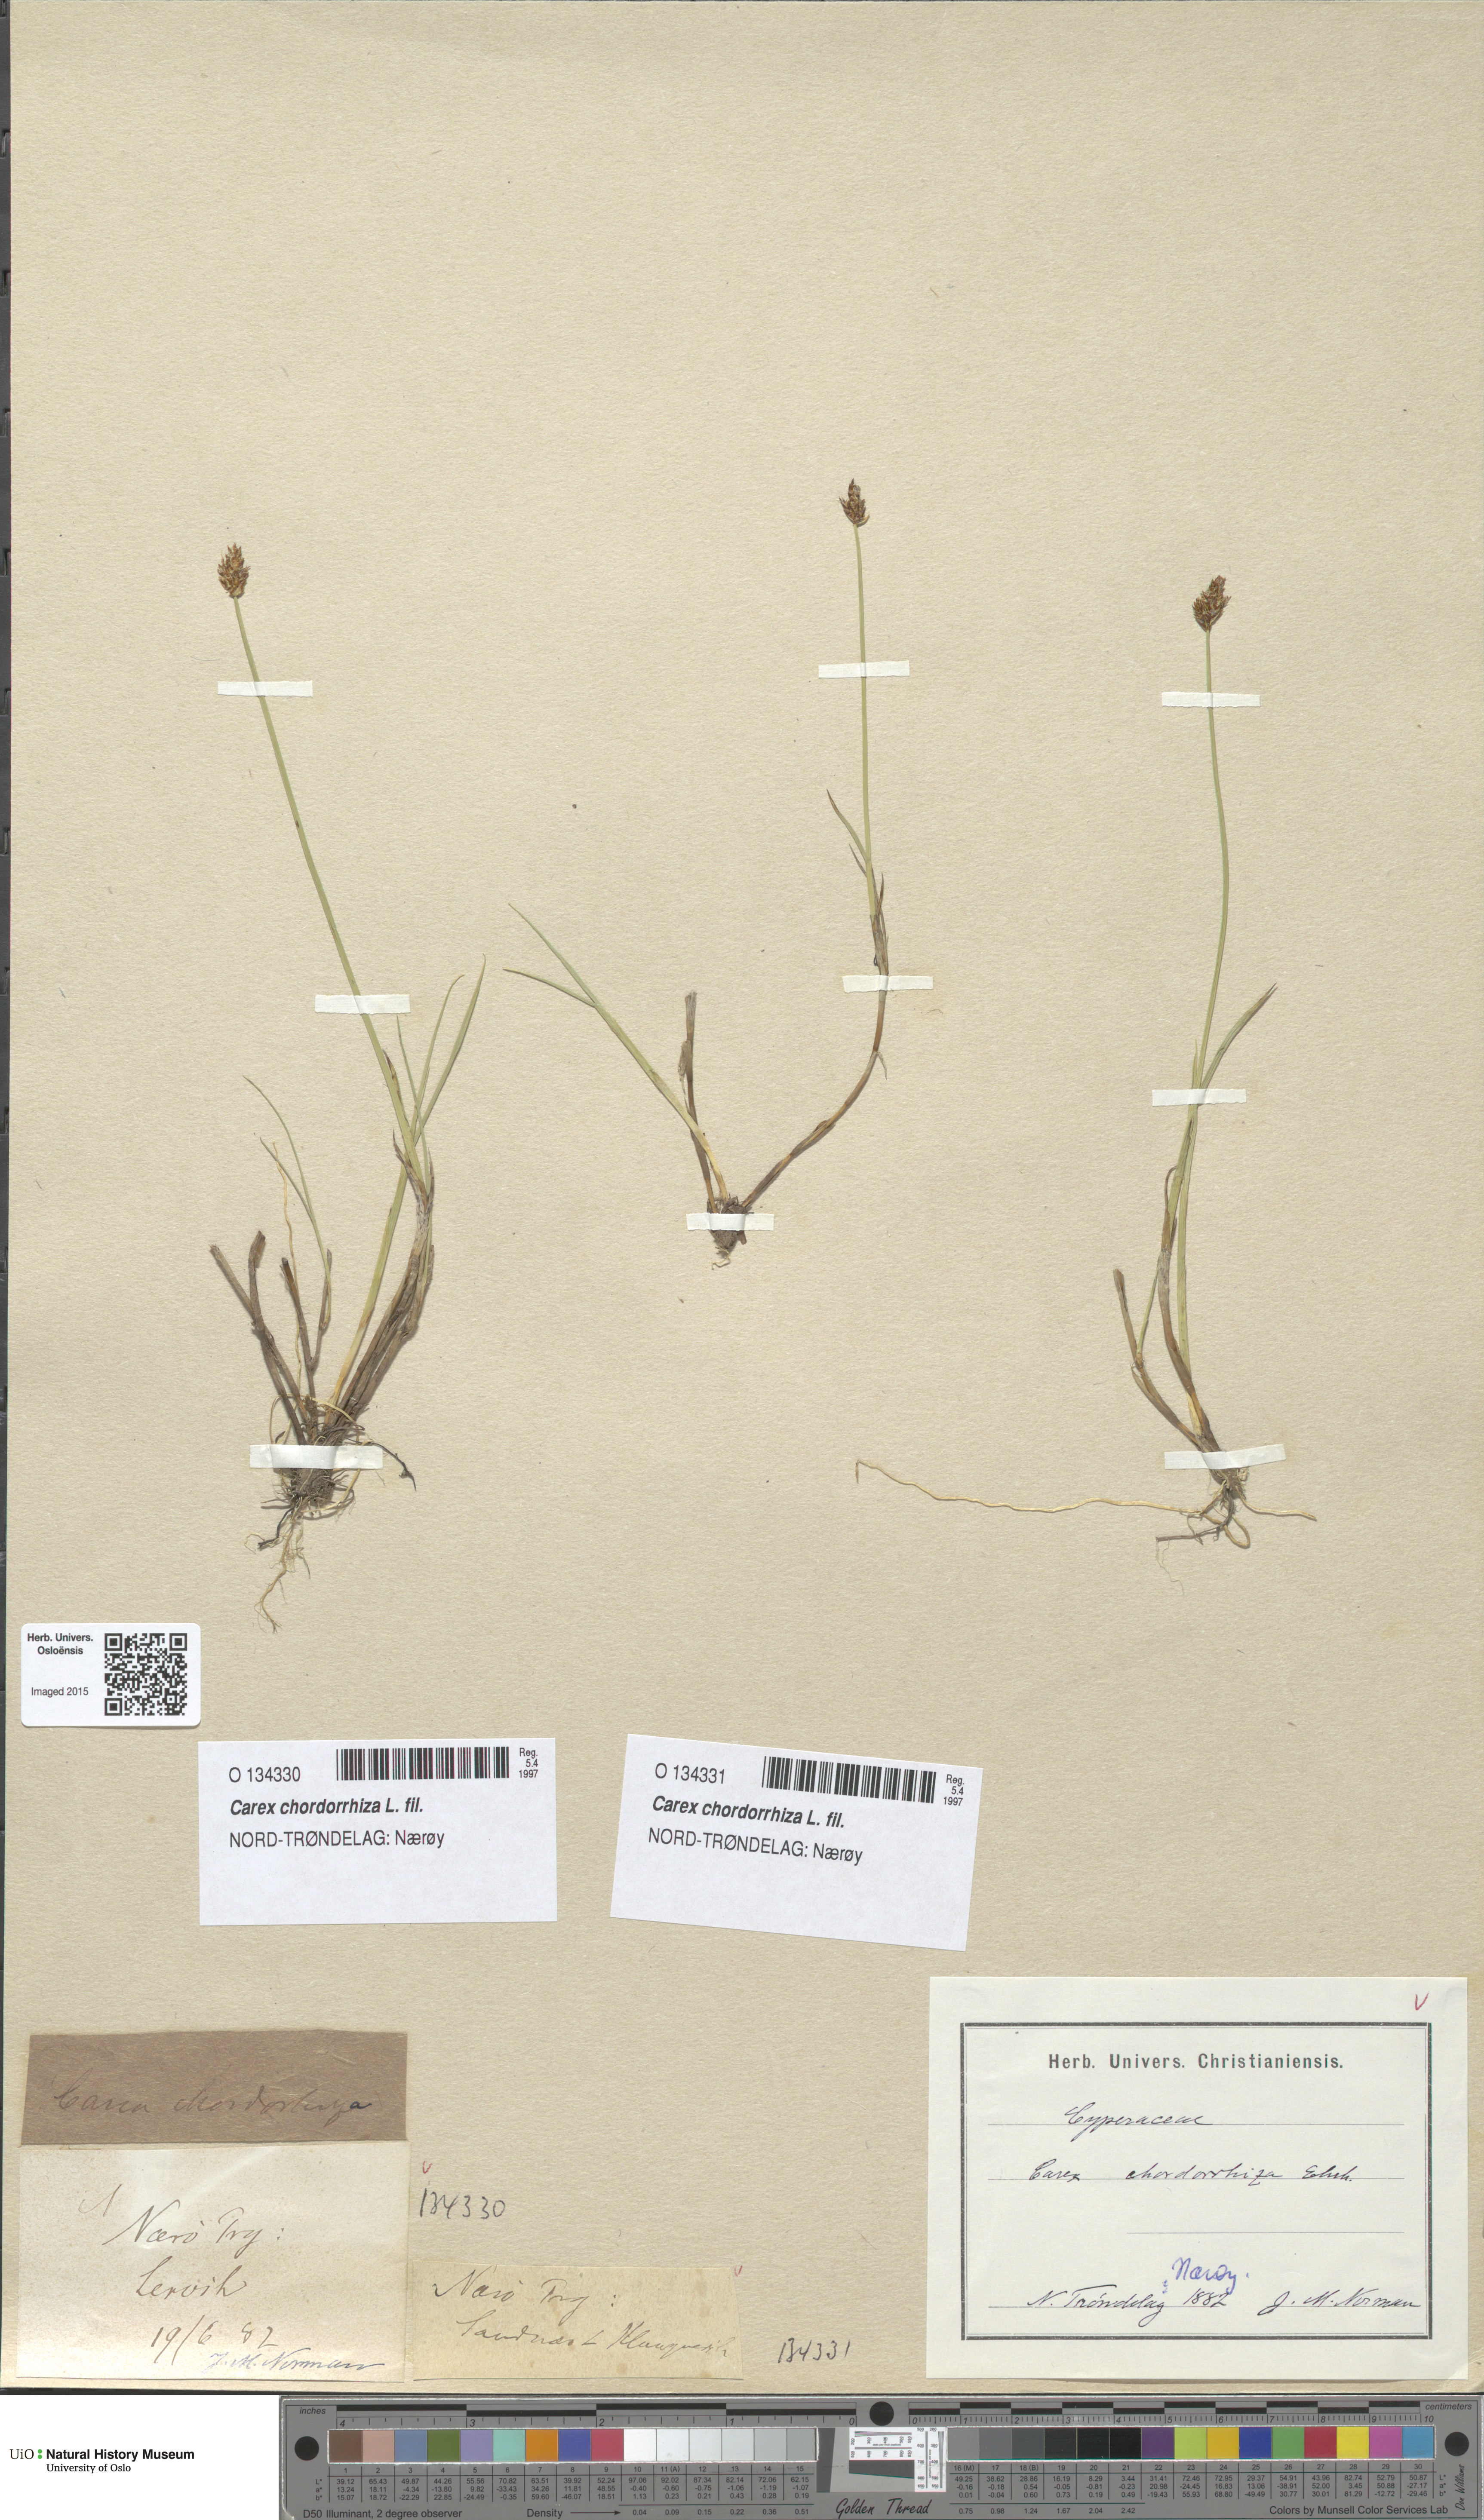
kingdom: Plantae
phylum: Tracheophyta
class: Liliopsida
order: Poales
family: Cyperaceae
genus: Carex
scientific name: Carex chordorrhiza
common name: String sedge
